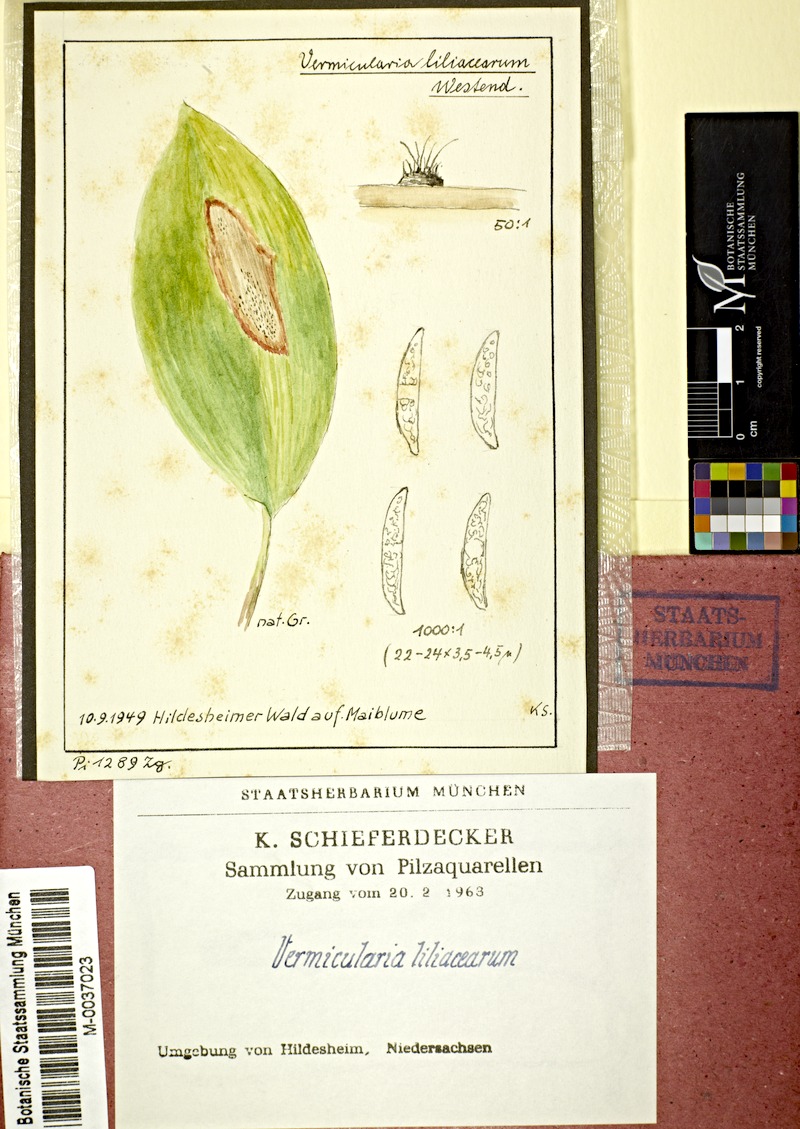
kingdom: Fungi
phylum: Ascomycota
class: Sordariomycetes
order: Glomerellales
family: Glomerellaceae
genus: Colletotrichum
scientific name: Colletotrichum dematium
